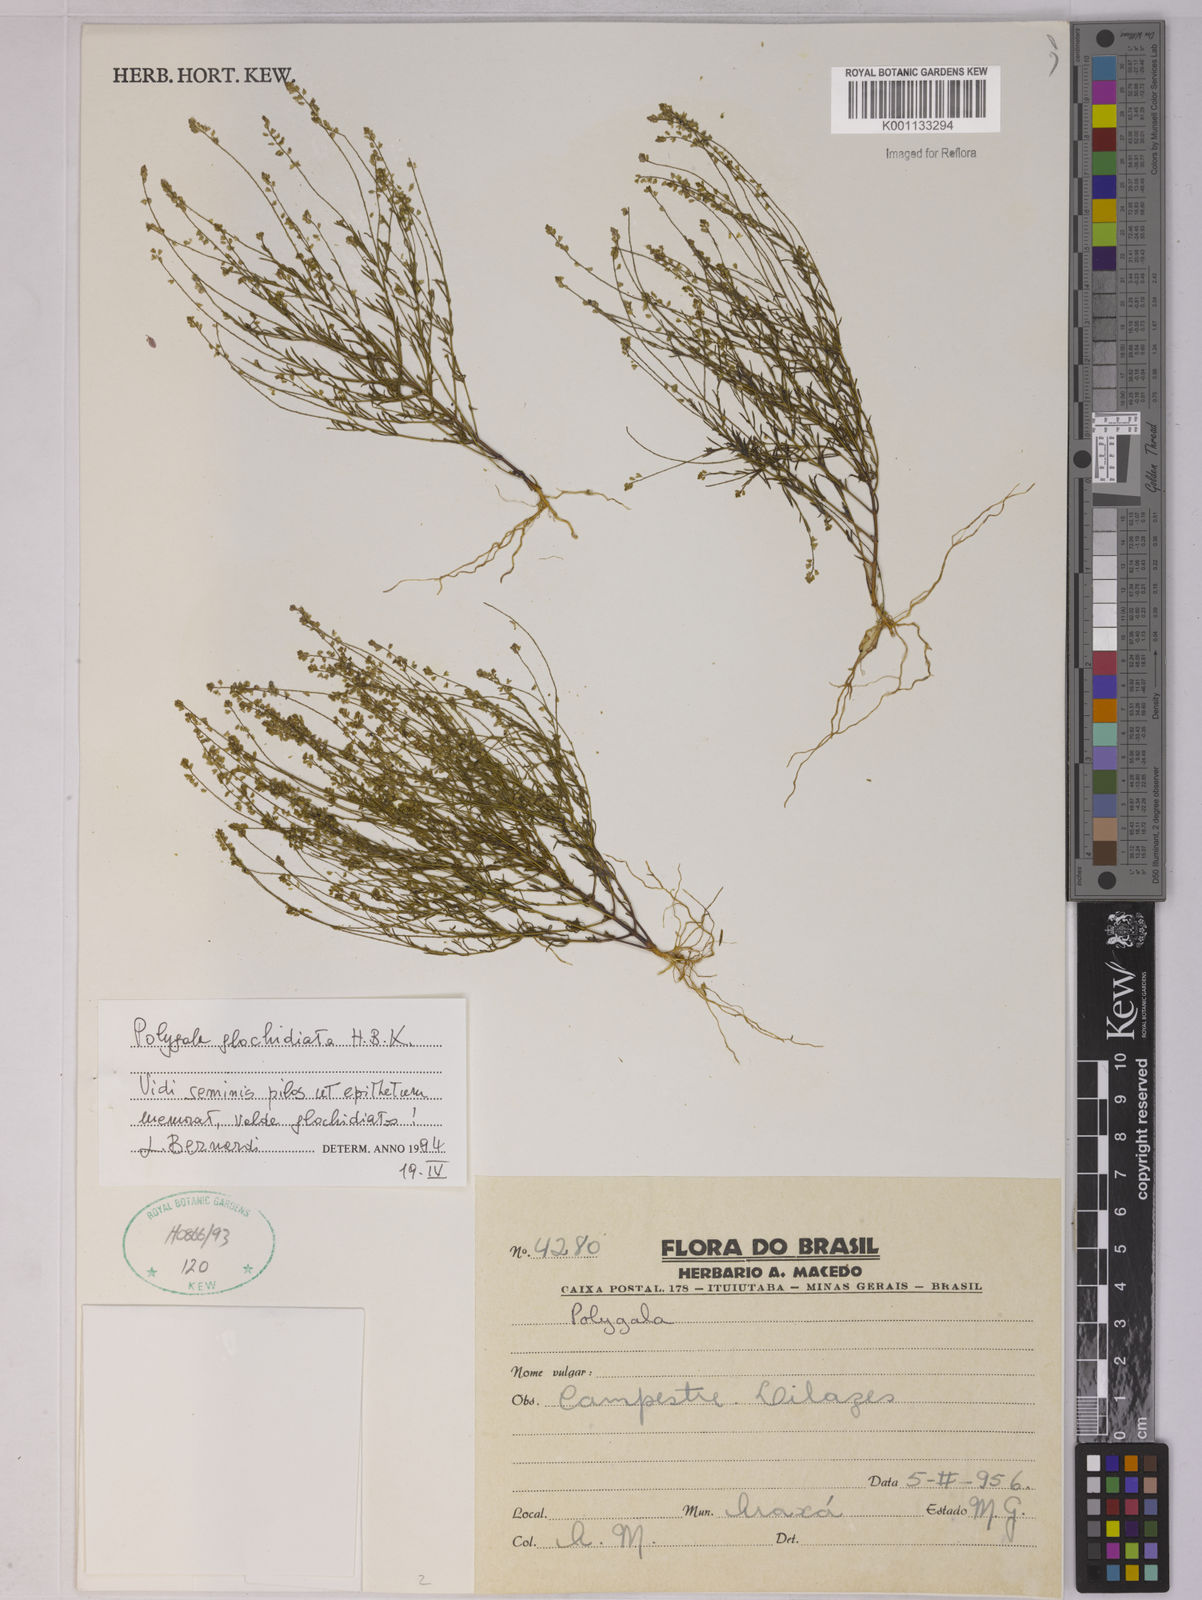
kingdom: Plantae
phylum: Tracheophyta
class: Magnoliopsida
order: Fabales
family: Polygalaceae
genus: Polygala
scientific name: Polygala glochidiata
